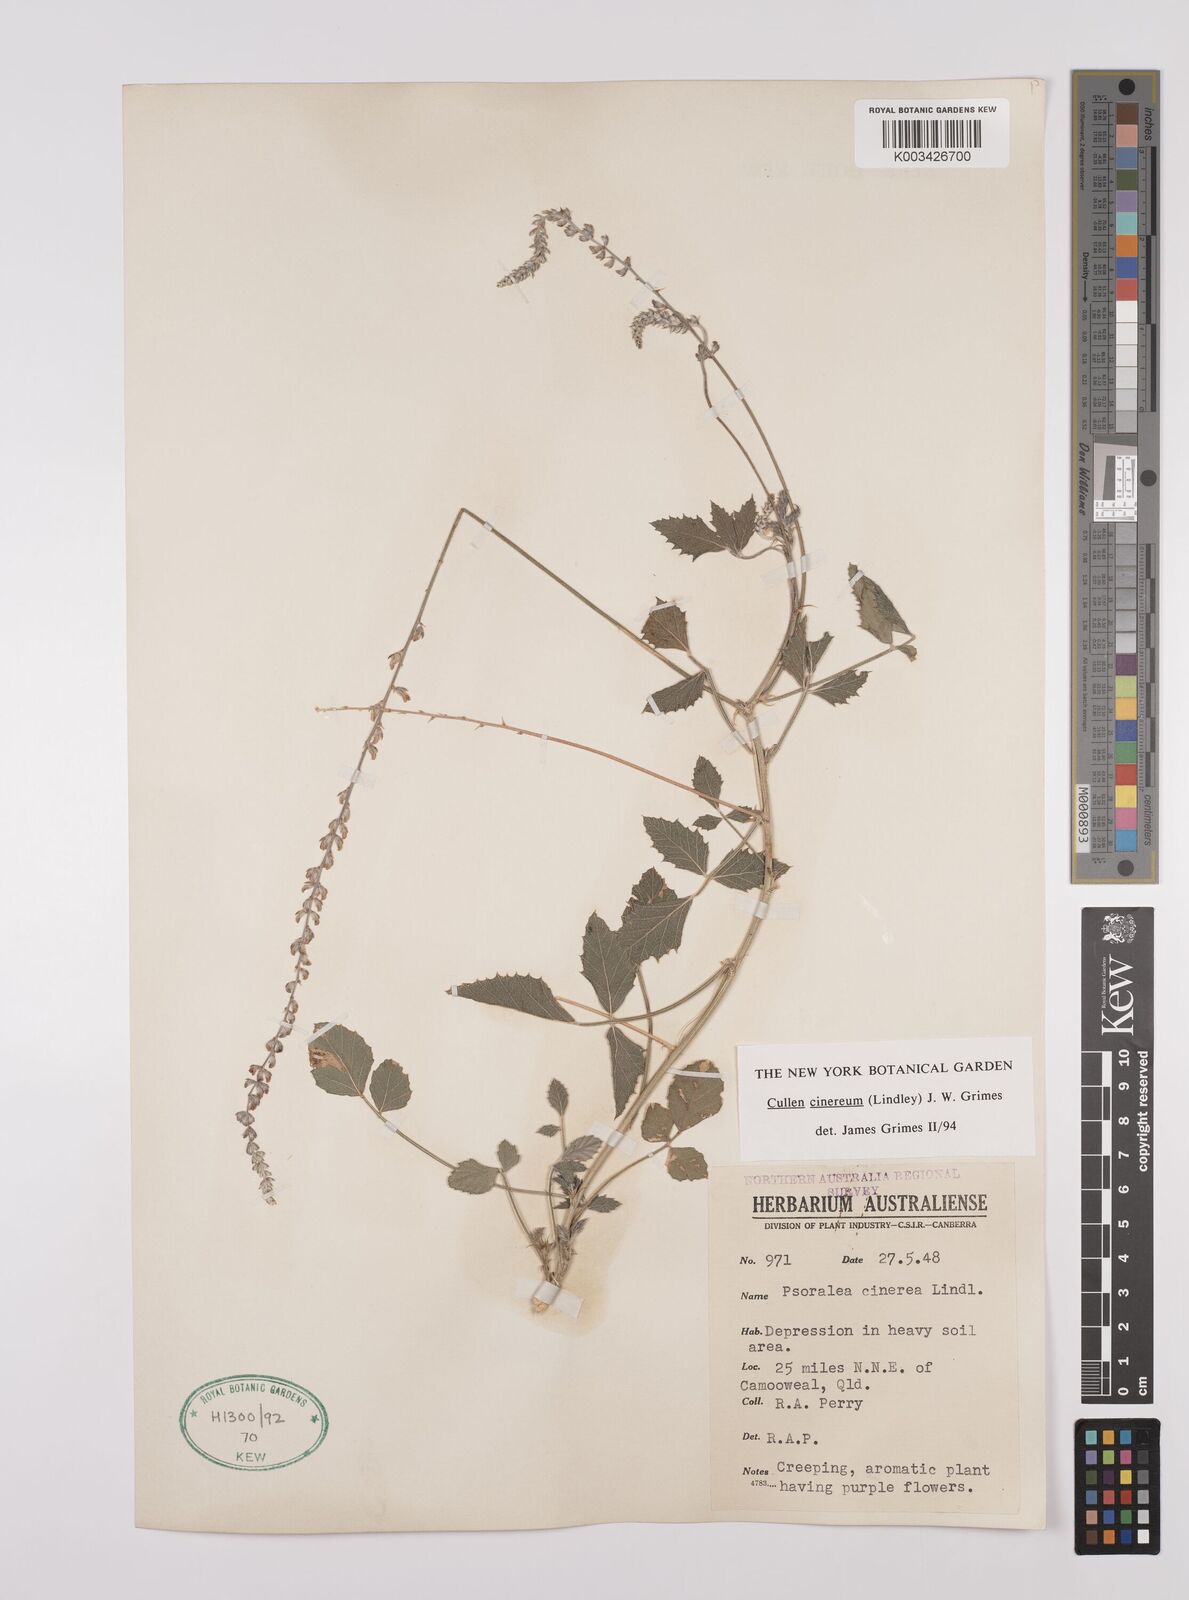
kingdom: Plantae
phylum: Tracheophyta
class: Magnoliopsida
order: Fabales
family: Fabaceae
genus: Cullen
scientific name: Cullen cinereum
